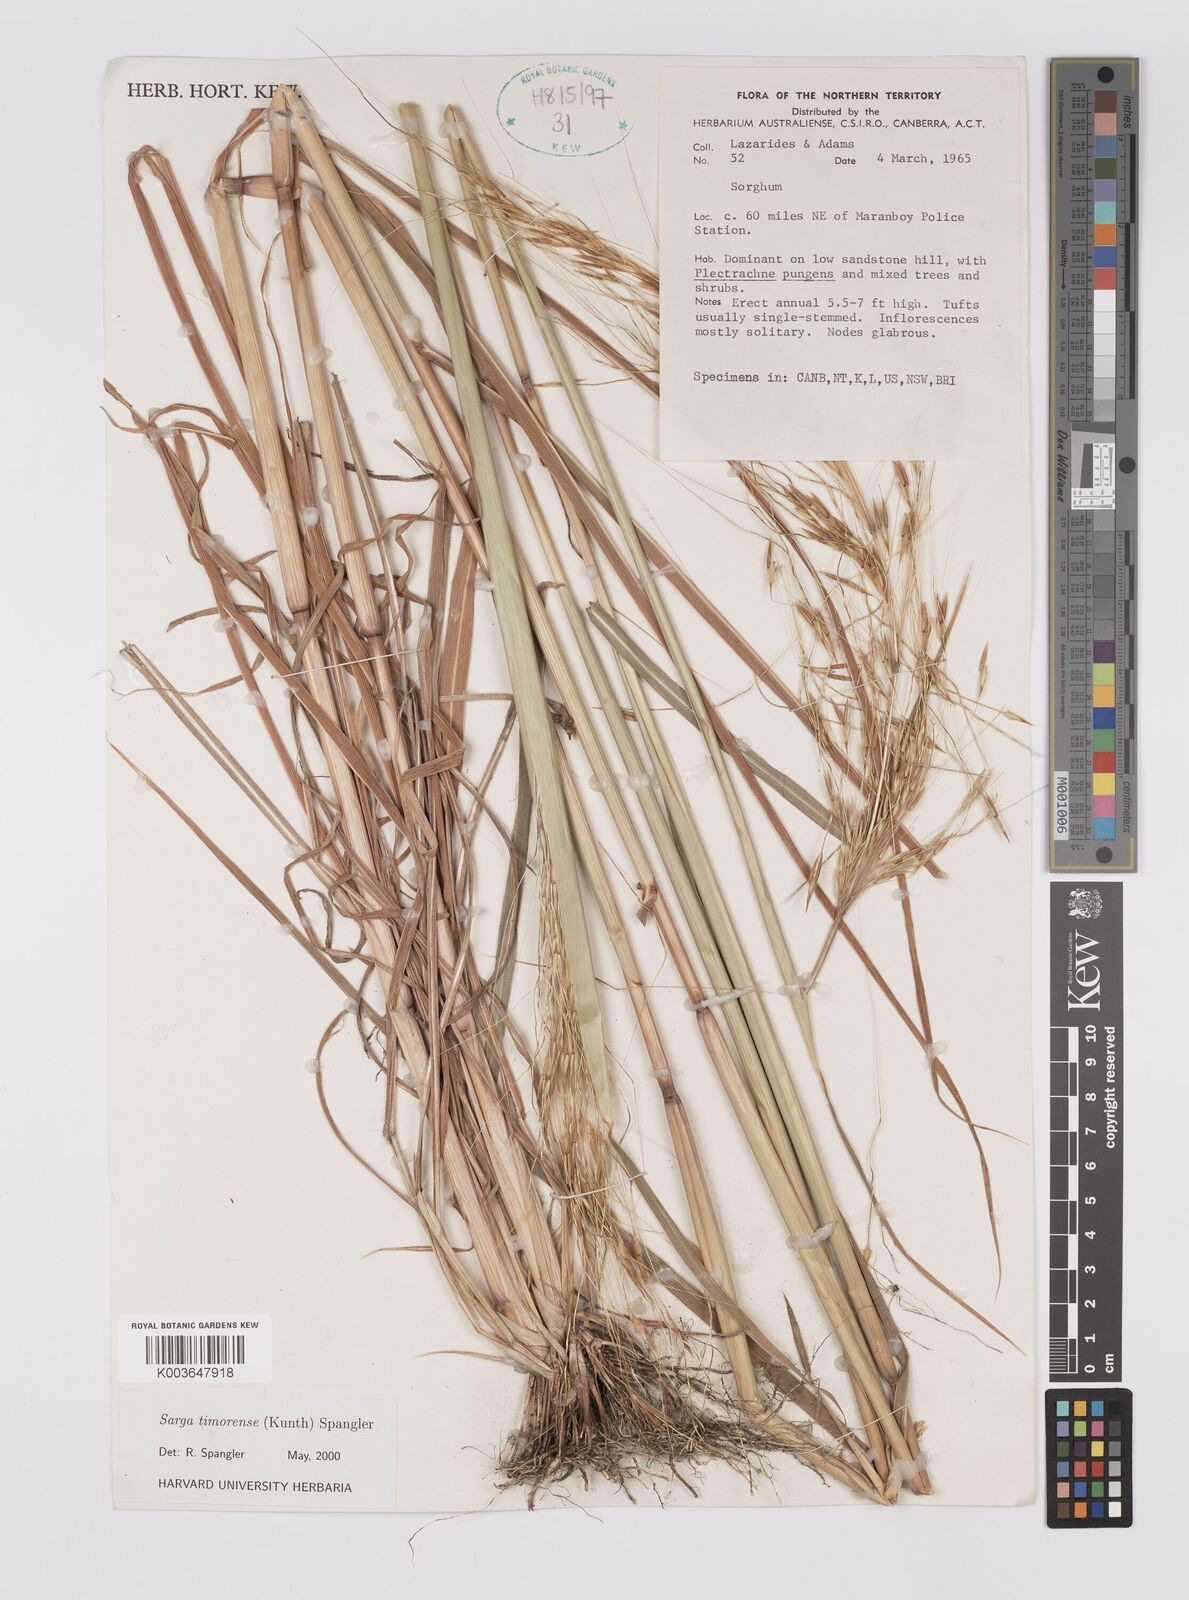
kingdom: Plantae
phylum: Tracheophyta
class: Liliopsida
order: Poales
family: Poaceae
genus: Sarga
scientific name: Sarga timorensis
